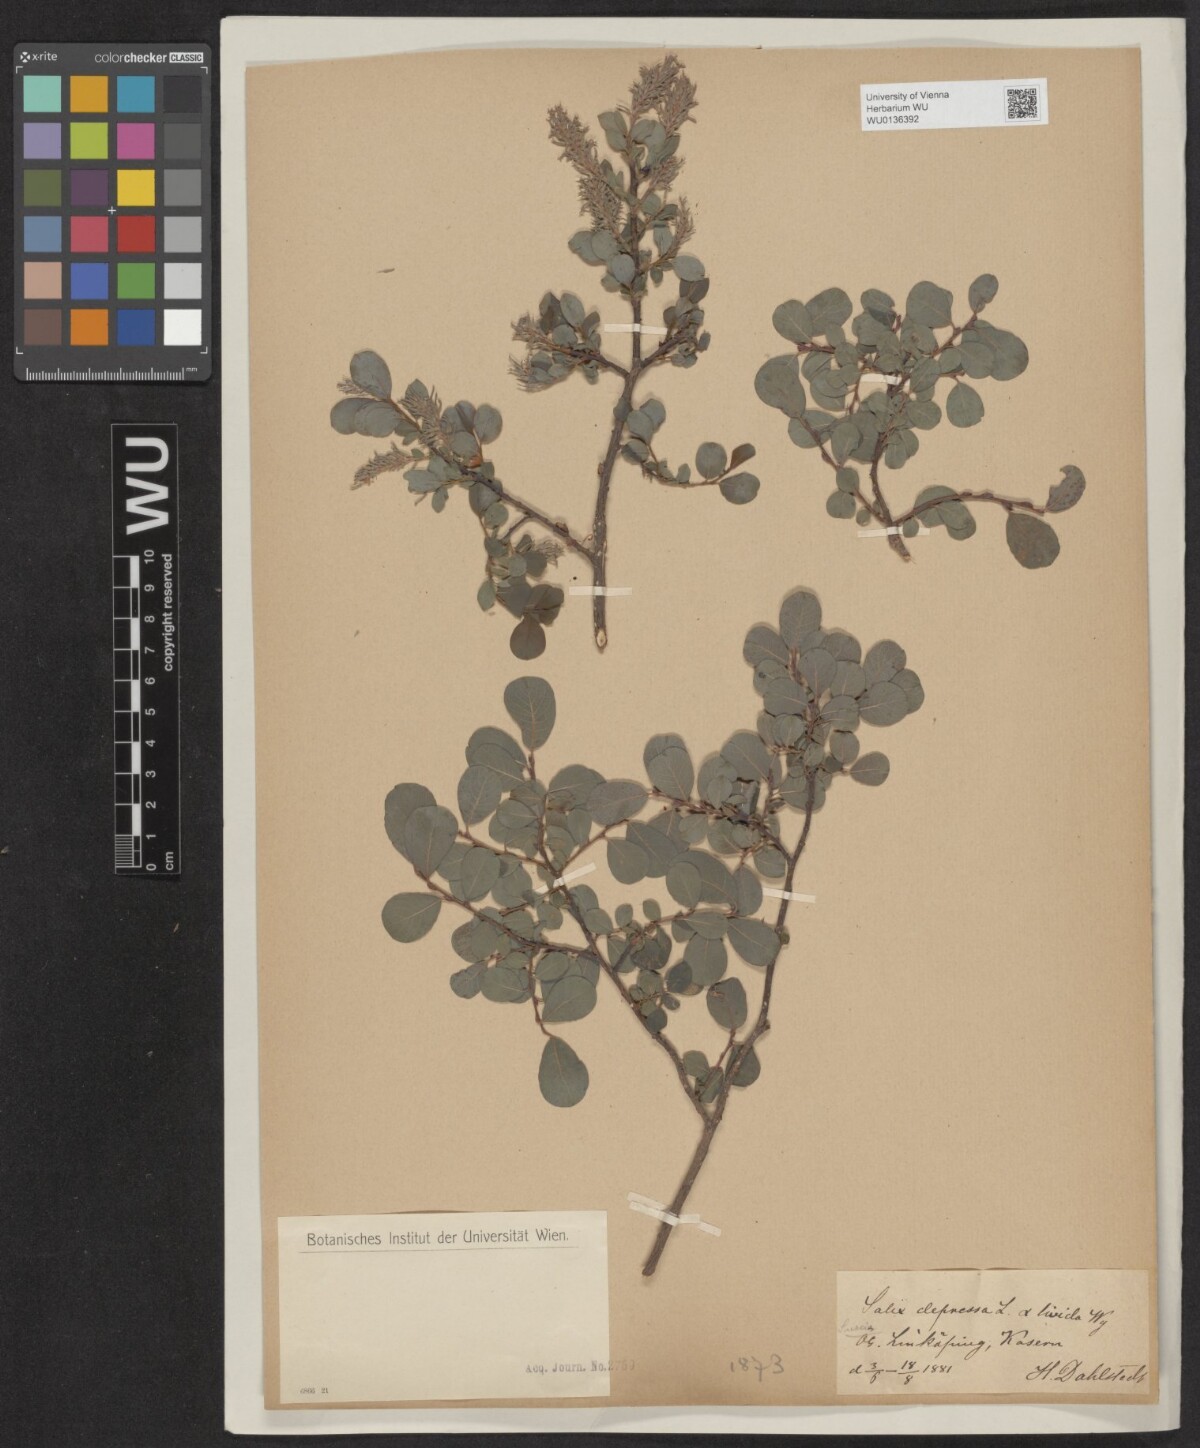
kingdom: Plantae
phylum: Tracheophyta
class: Magnoliopsida
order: Malpighiales
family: Salicaceae
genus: Salix
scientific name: Salix lanata
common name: Woolly willow
